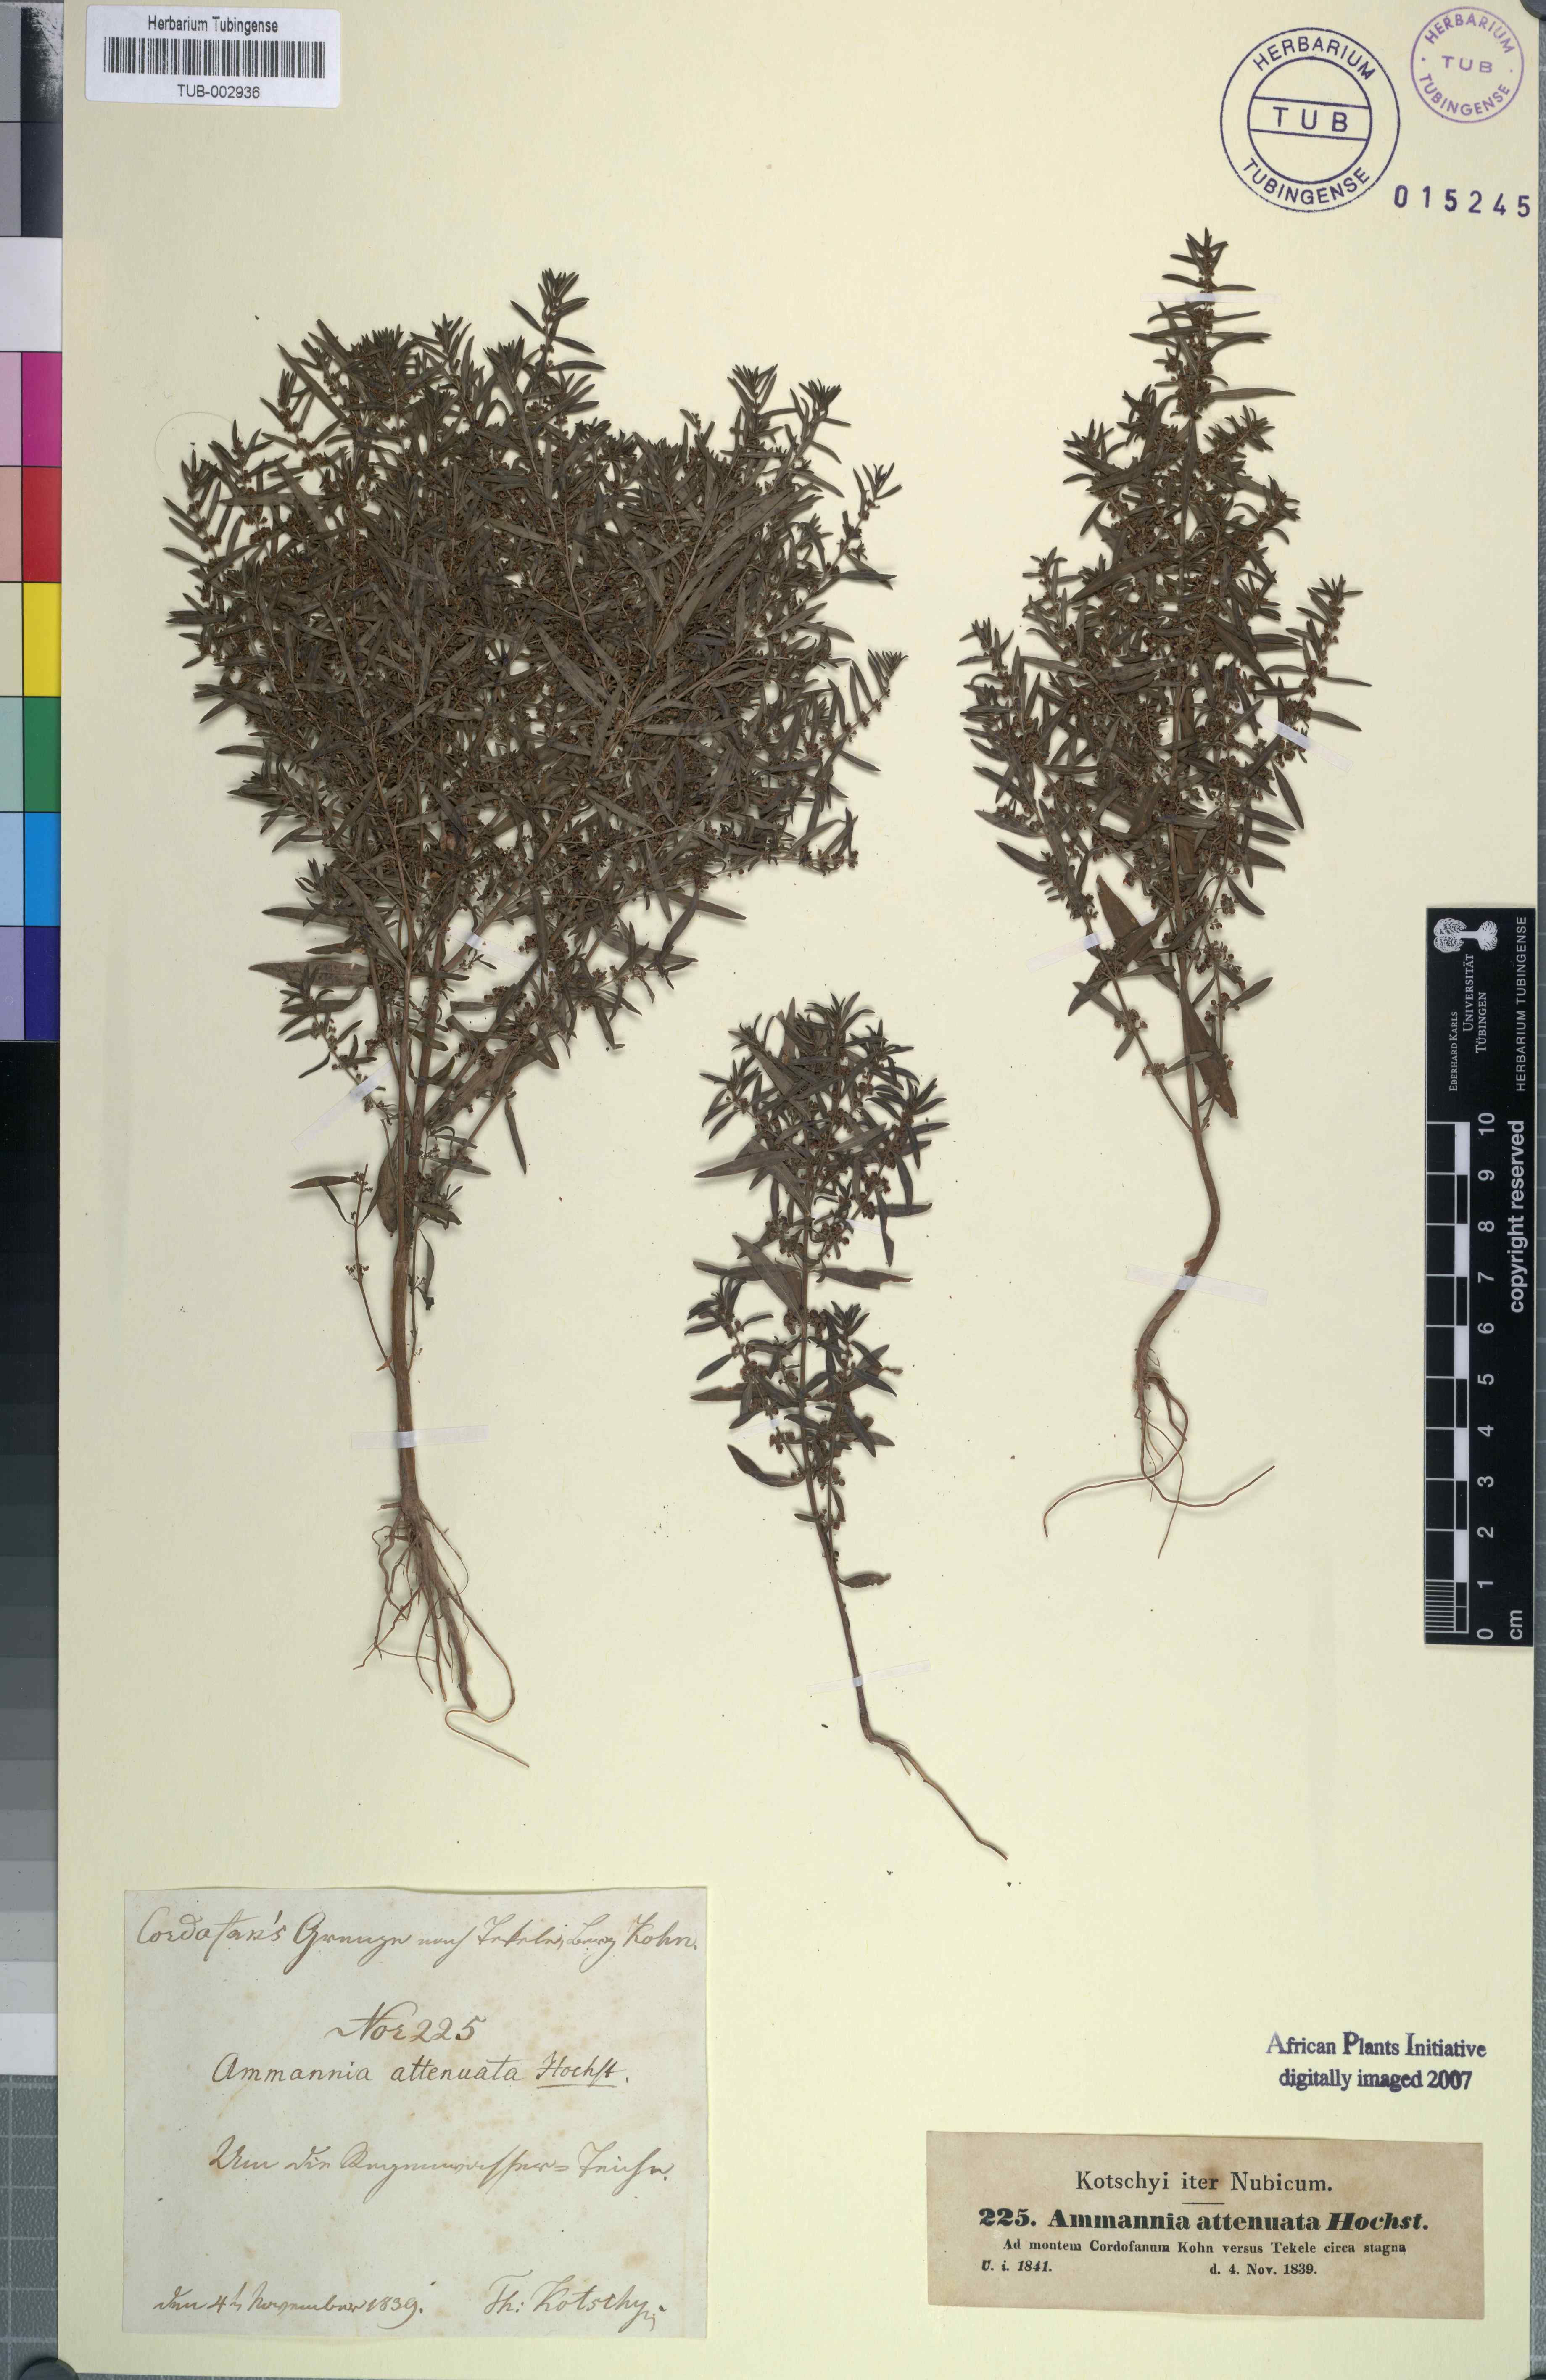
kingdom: Plantae
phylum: Tracheophyta
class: Magnoliopsida
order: Myrtales
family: Lythraceae
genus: Ammannia
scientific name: Ammannia baccifera
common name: Blistering ammania
